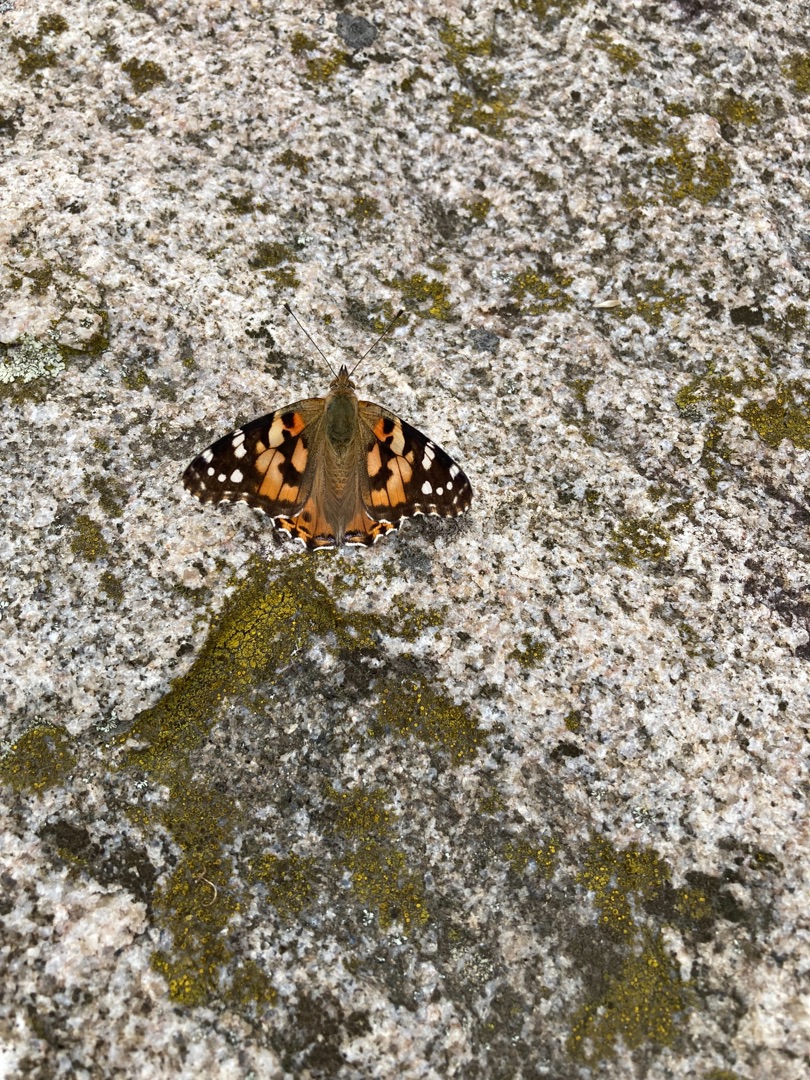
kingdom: Animalia
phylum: Arthropoda
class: Insecta
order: Lepidoptera
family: Nymphalidae
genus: Vanessa
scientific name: Vanessa cardui
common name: Tidselsommerfugl
